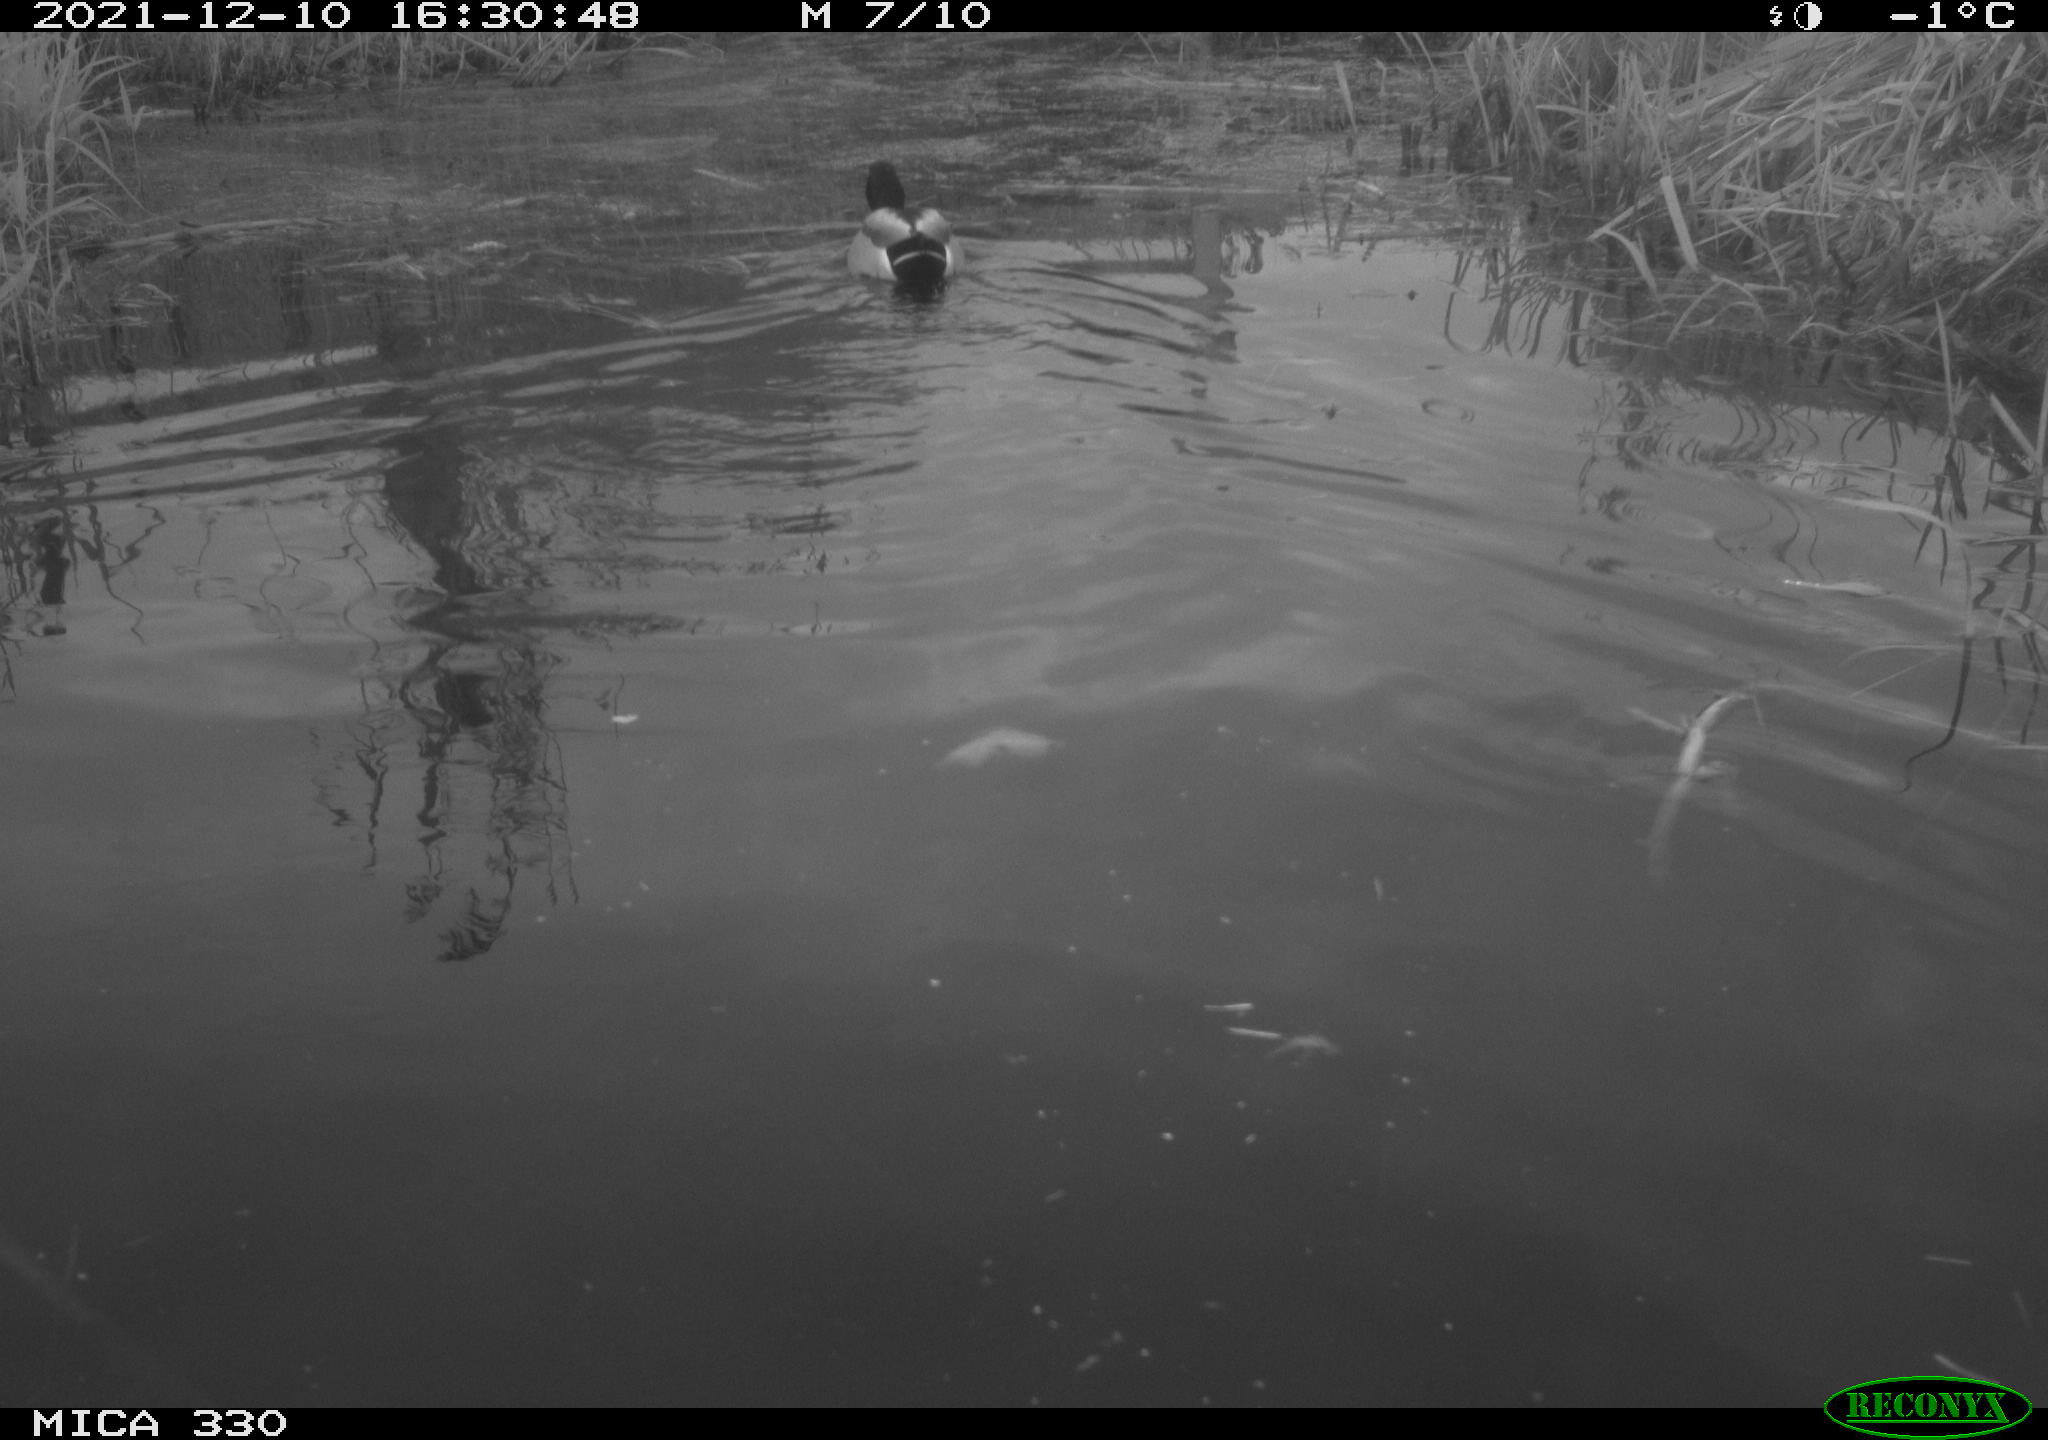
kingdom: Animalia
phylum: Chordata
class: Aves
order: Anseriformes
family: Anatidae
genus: Anas
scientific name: Anas platyrhynchos
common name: Mallard
